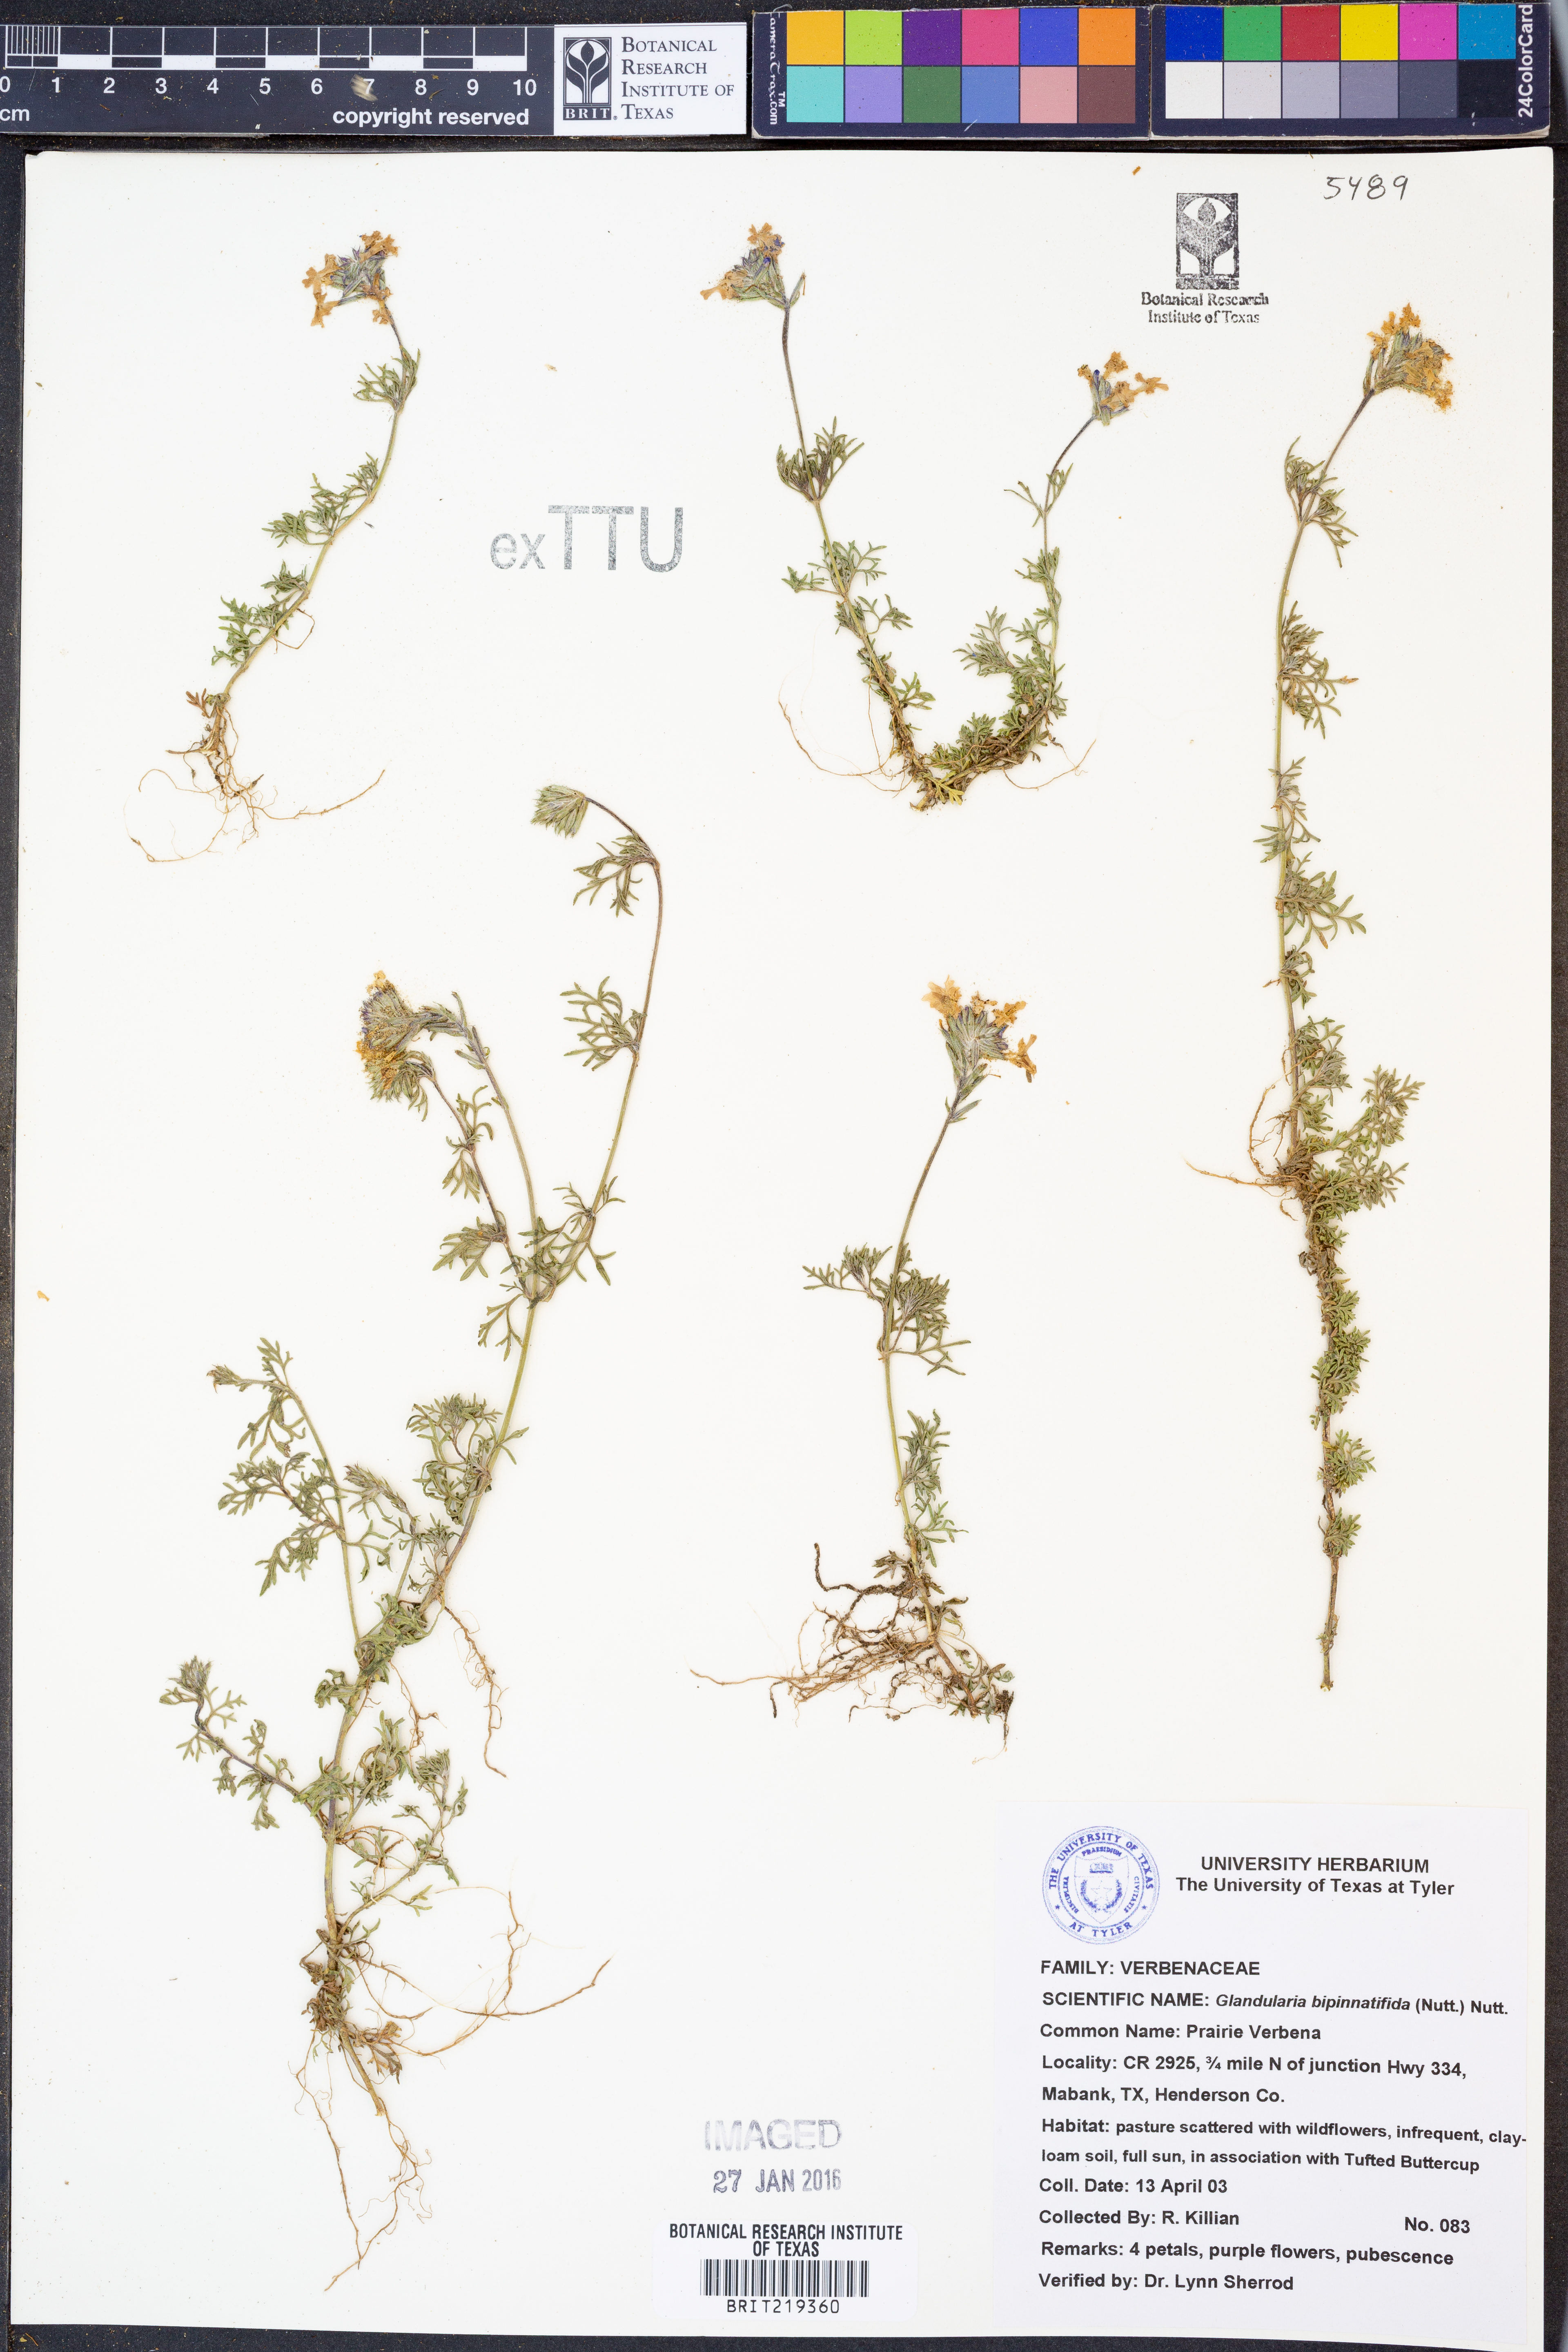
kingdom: Plantae
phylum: Tracheophyta
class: Magnoliopsida
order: Lamiales
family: Verbenaceae
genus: Verbena
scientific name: Verbena bipinnatifida
